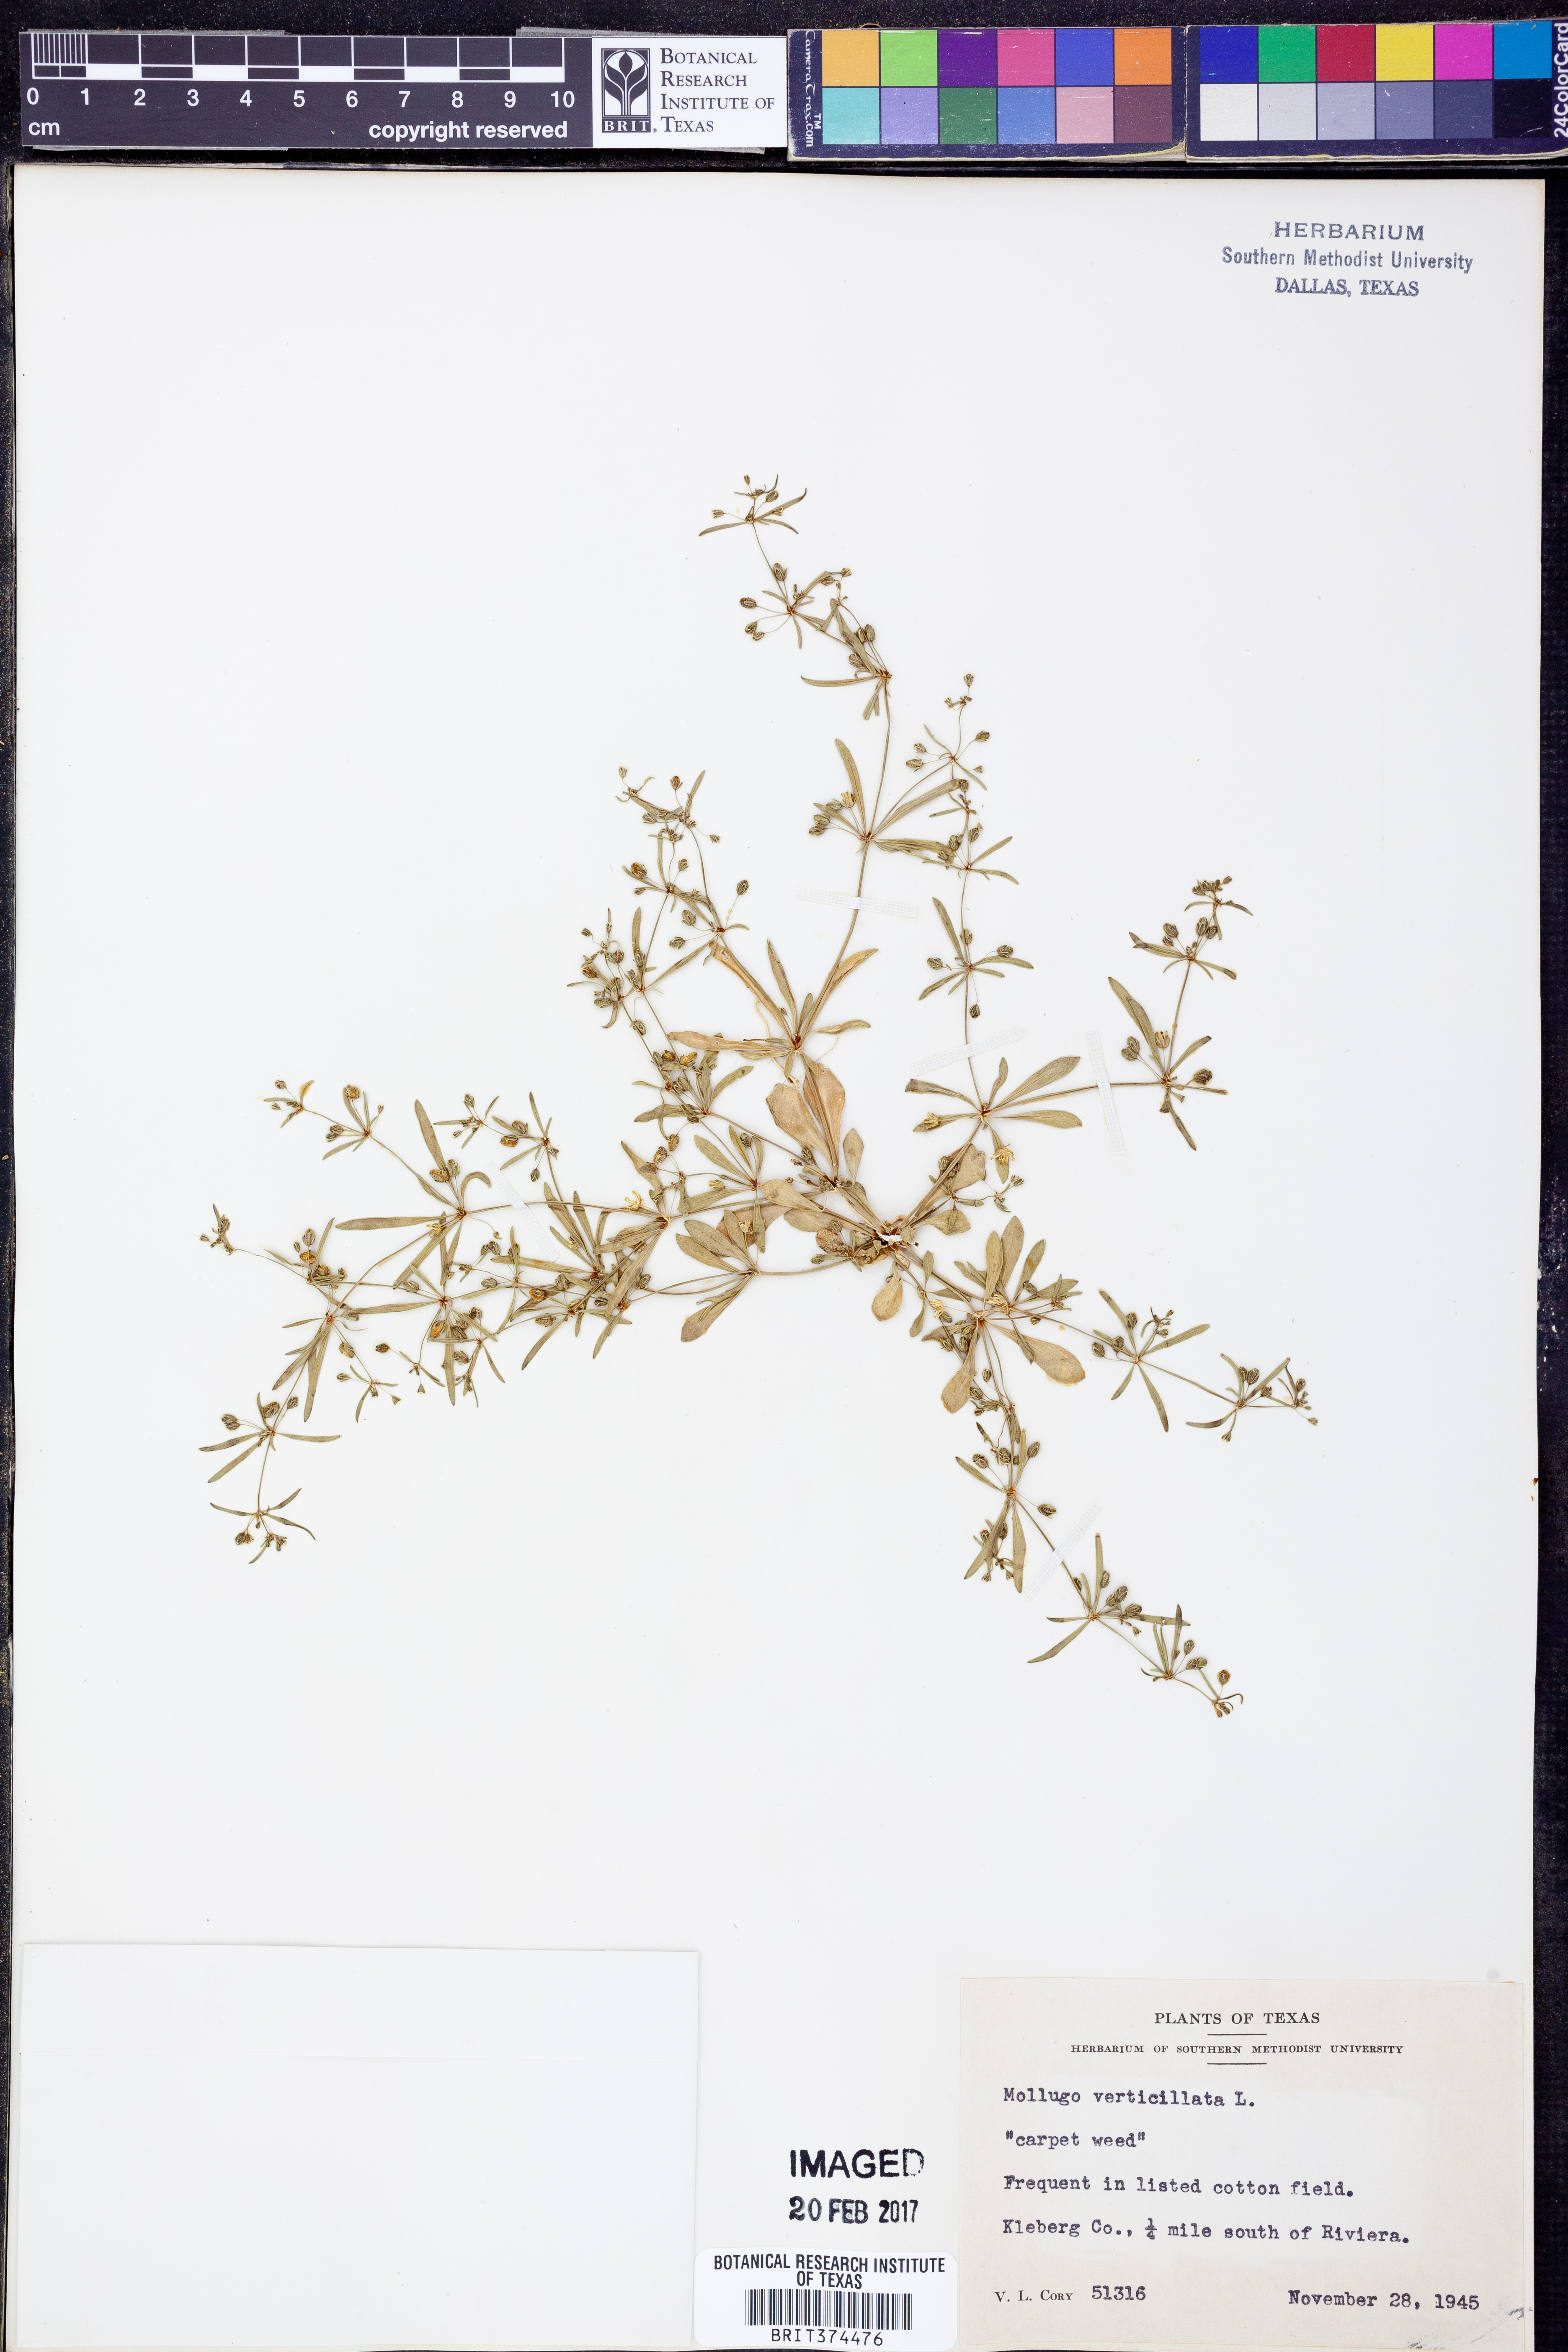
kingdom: Plantae
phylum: Tracheophyta
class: Magnoliopsida
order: Caryophyllales
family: Molluginaceae
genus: Mollugo
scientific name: Mollugo verticillata
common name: Green carpetweed
